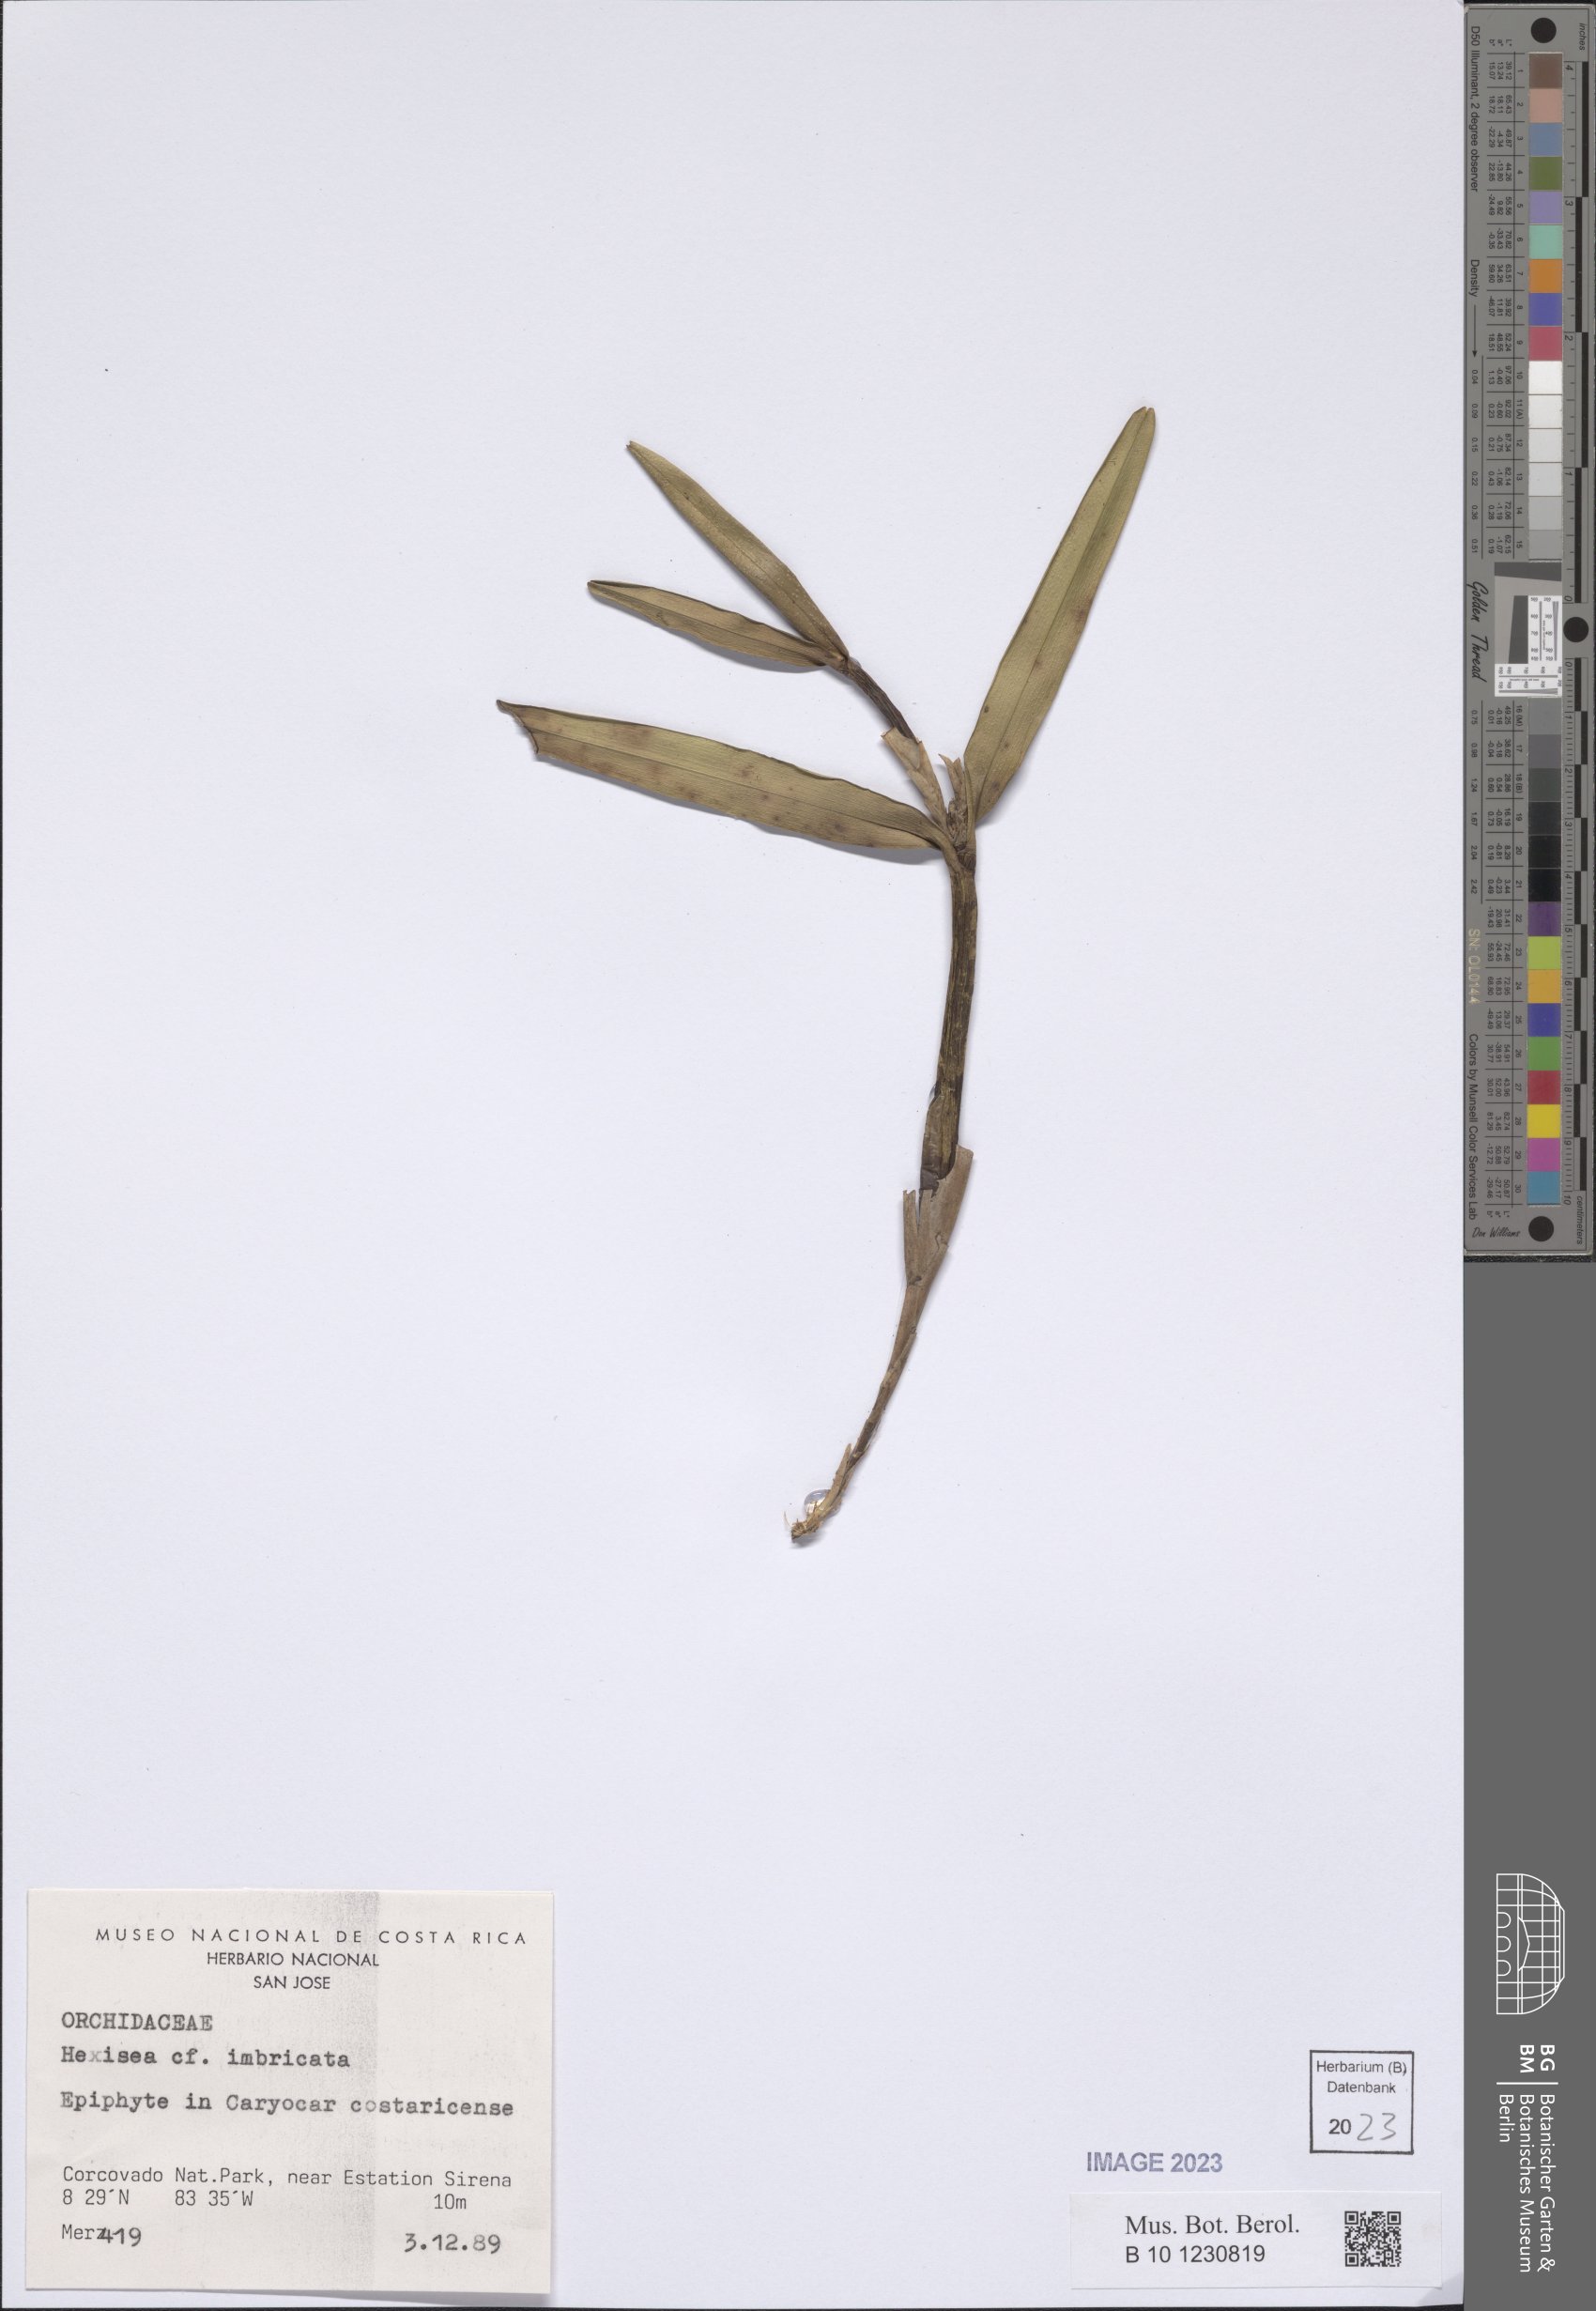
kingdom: Plantae
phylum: Tracheophyta
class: Liliopsida
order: Asparagales
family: Orchidaceae
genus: Scaphyglottis
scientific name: Scaphyglottis imbricata
